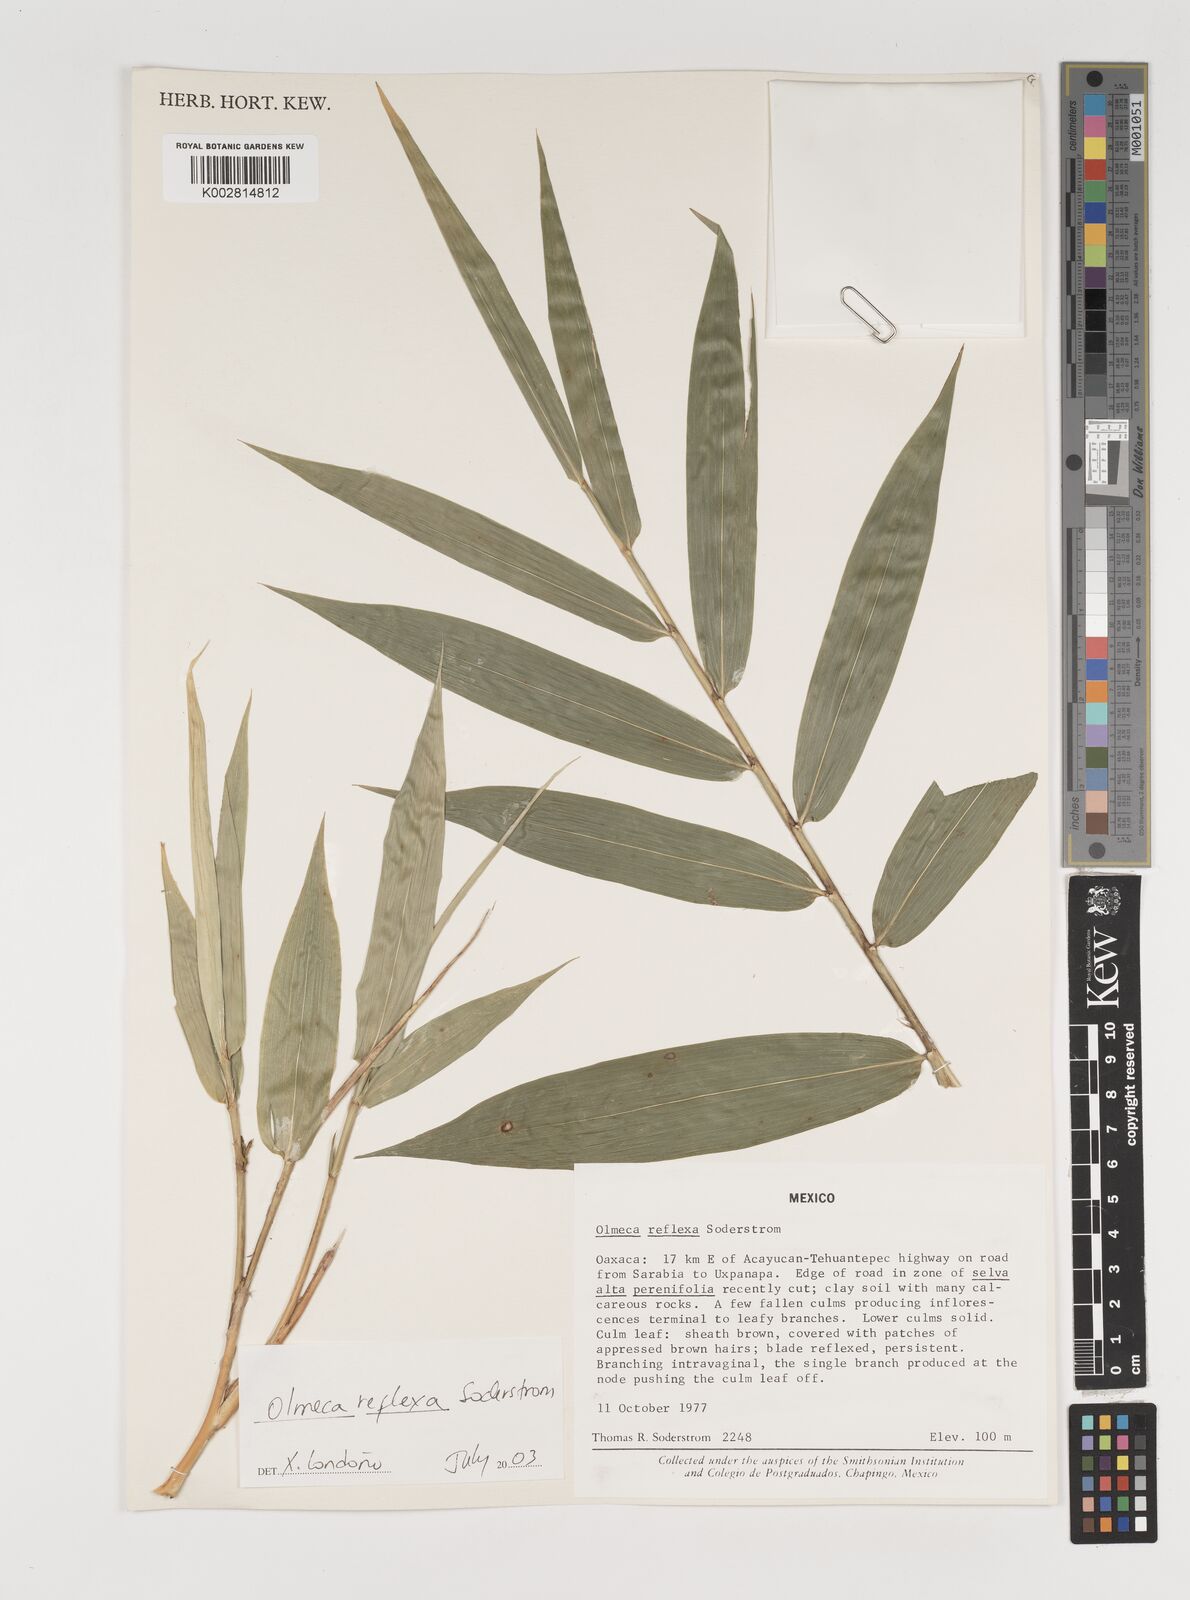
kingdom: Plantae
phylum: Tracheophyta
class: Liliopsida
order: Poales
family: Poaceae
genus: Olmeca
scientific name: Olmeca reflexa
